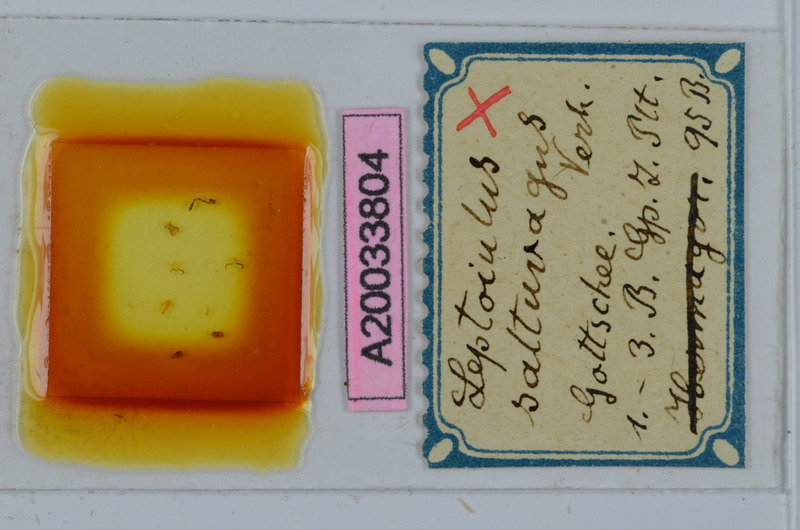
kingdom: Animalia
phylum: Arthropoda
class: Diplopoda
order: Julida
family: Julidae
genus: Leptoiulus
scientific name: Leptoiulus saltuvagus
